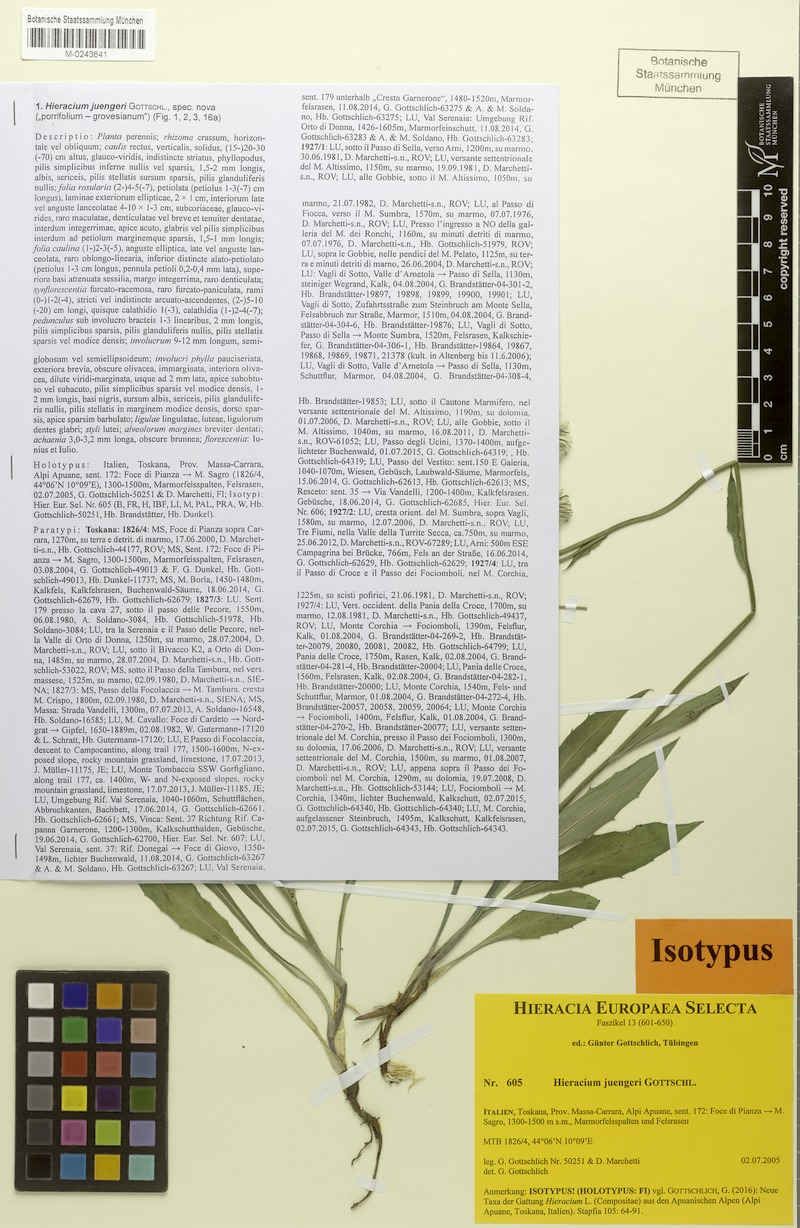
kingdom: Plantae
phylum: Tracheophyta
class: Magnoliopsida
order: Asterales
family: Asteraceae
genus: Hieracium
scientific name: Hieracium juengeri
